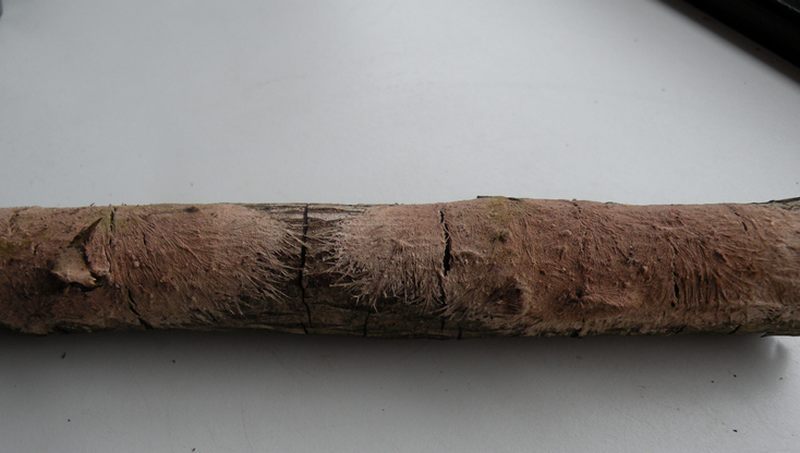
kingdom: Fungi
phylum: Basidiomycota
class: Agaricomycetes
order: Polyporales
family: Steccherinaceae
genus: Steccherinum
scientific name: Steccherinum fimbriatum
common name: trådet skønpig
